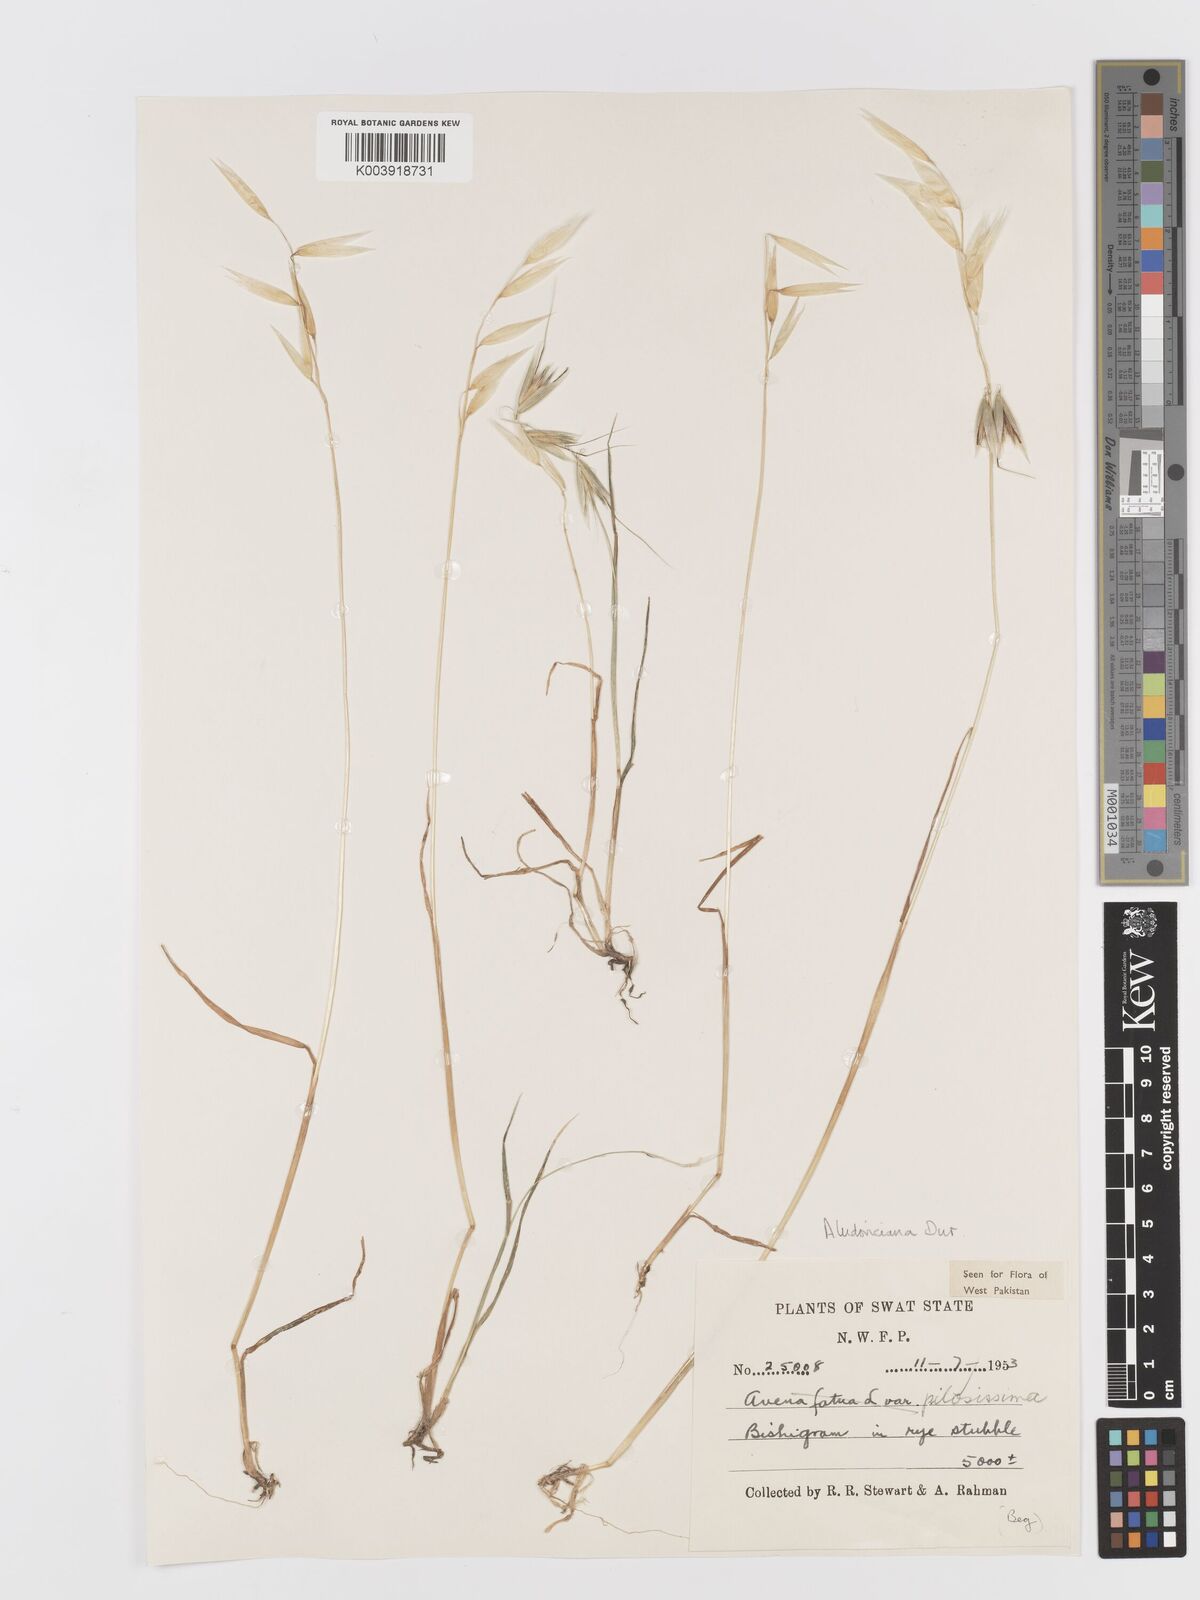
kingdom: Plantae
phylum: Tracheophyta
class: Liliopsida
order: Poales
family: Poaceae
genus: Avena
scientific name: Avena sterilis
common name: Animated oat
